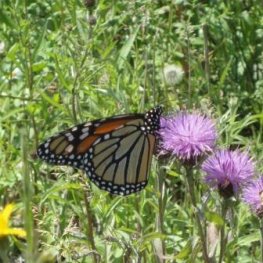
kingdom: Animalia
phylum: Arthropoda
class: Insecta
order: Lepidoptera
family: Nymphalidae
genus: Danaus
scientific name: Danaus plexippus
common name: Monarch
